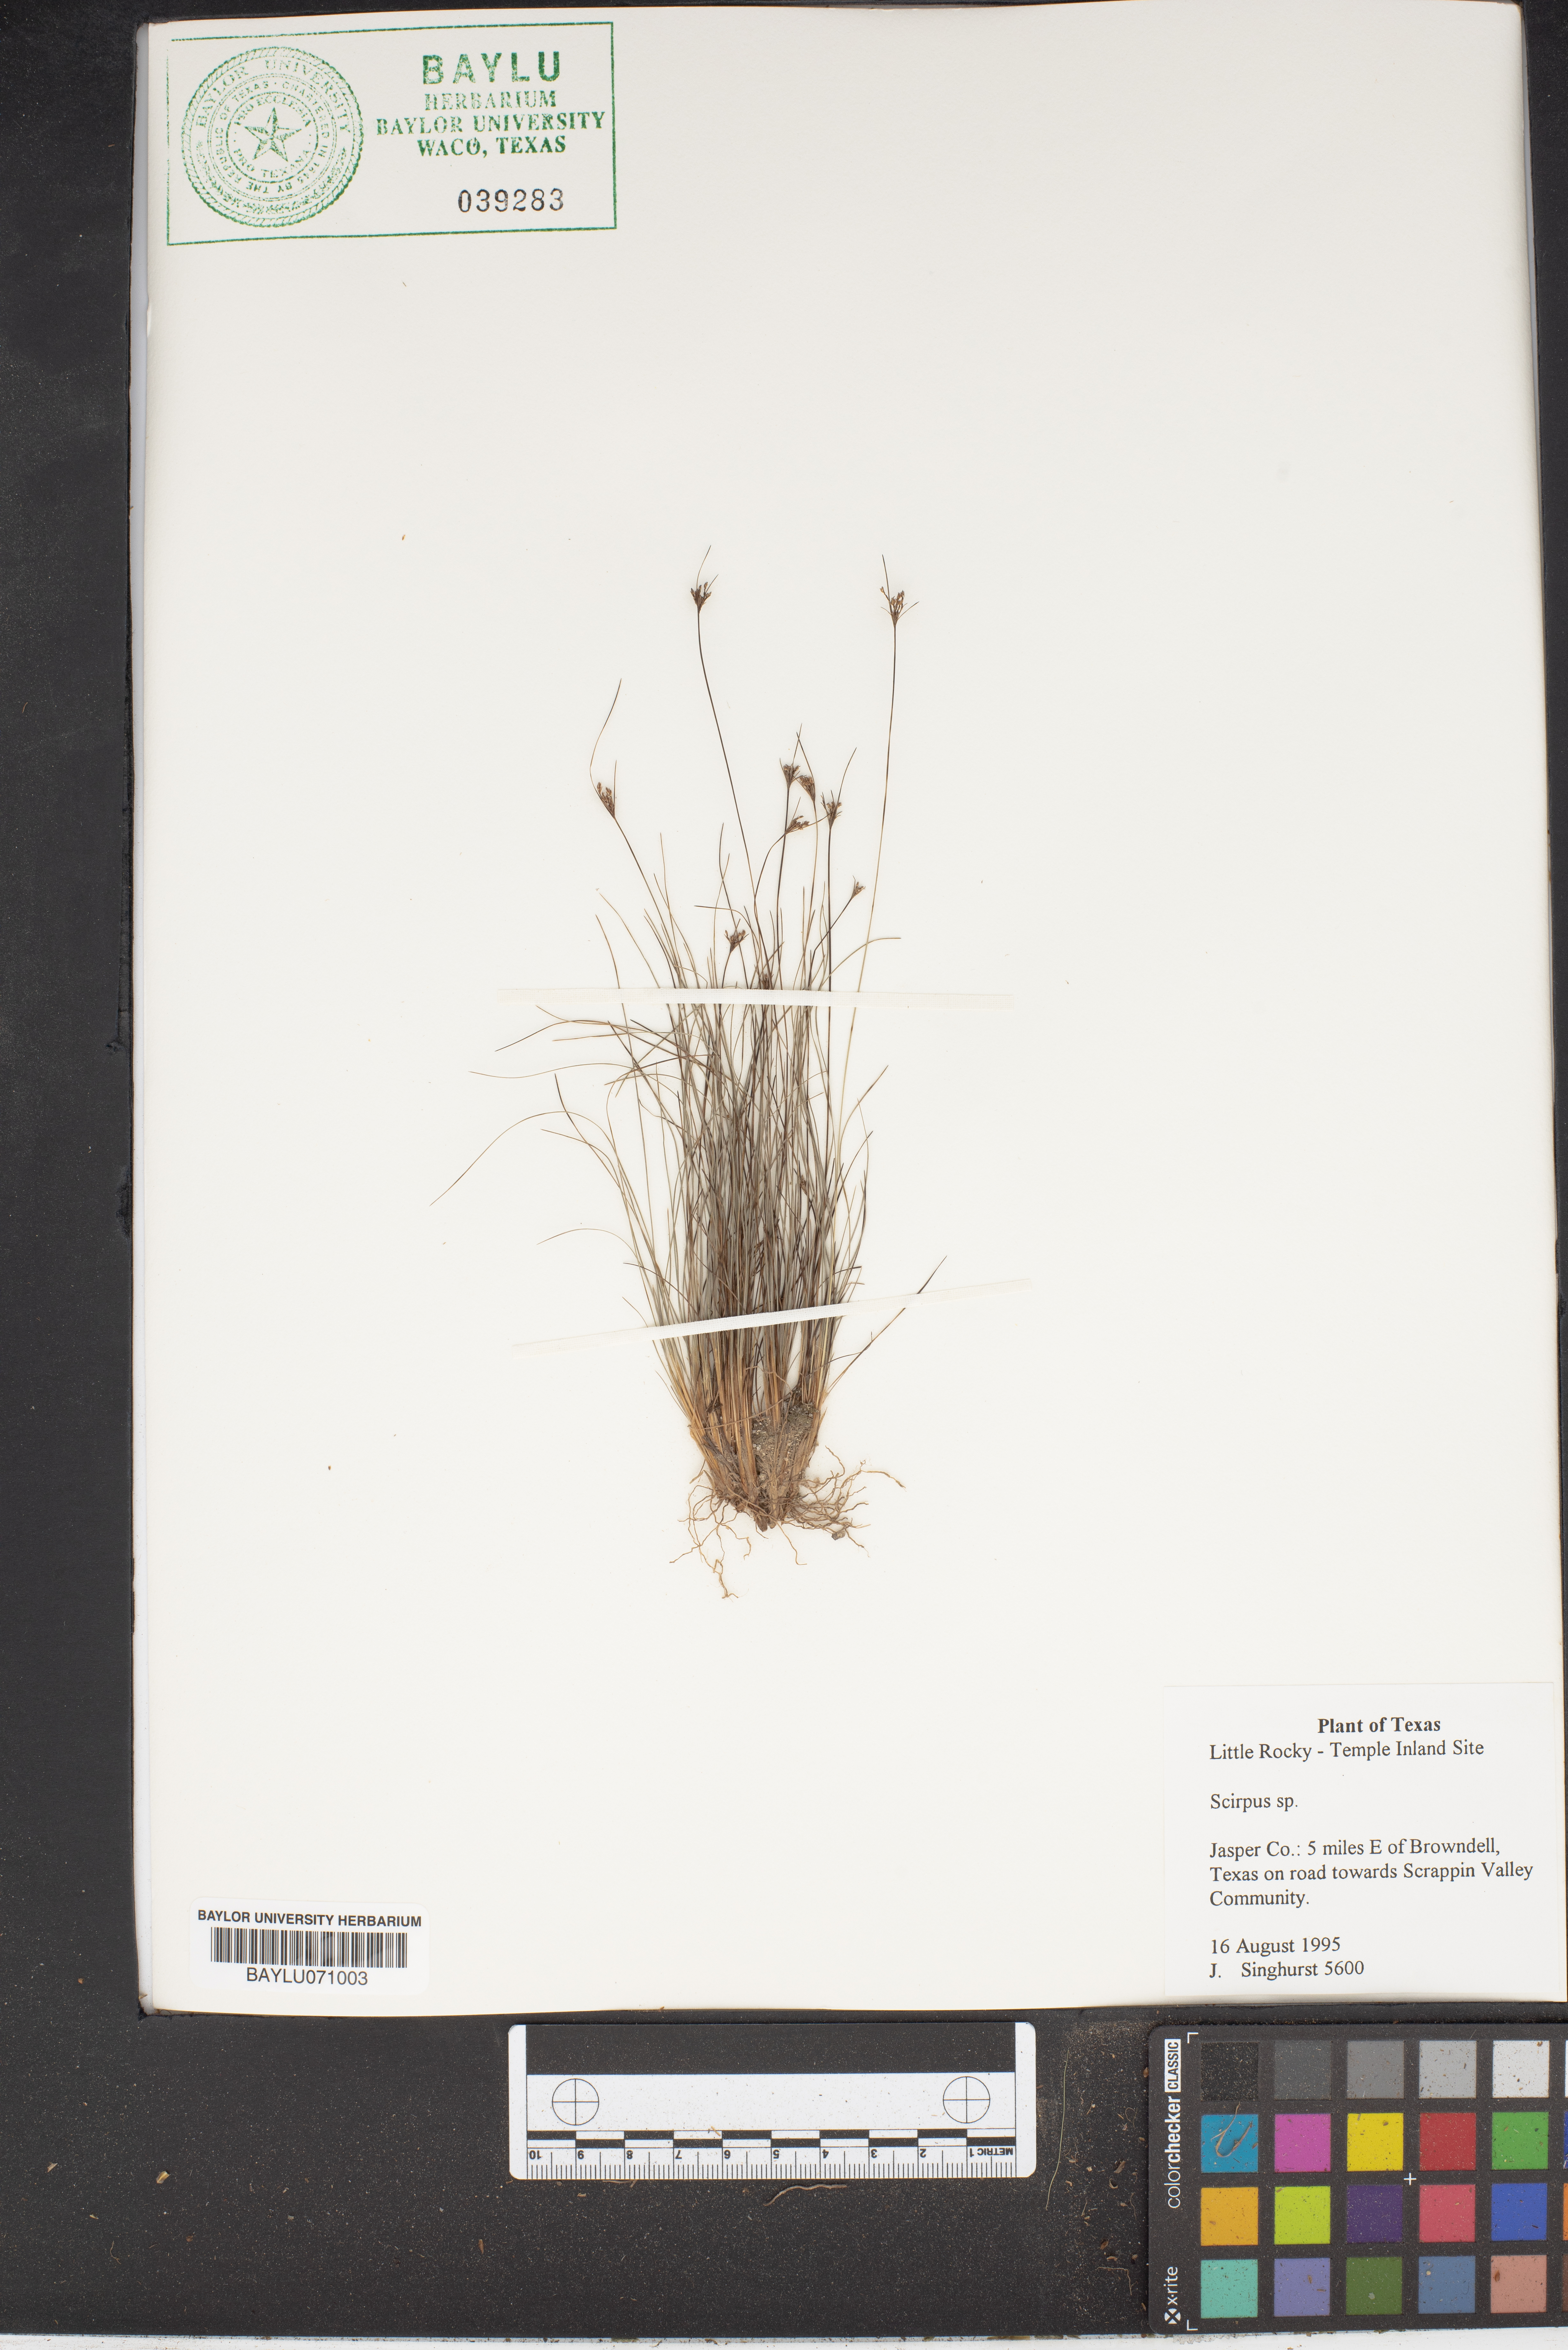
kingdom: Plantae
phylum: Tracheophyta
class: Liliopsida
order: Poales
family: Cyperaceae
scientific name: Cyperaceae
